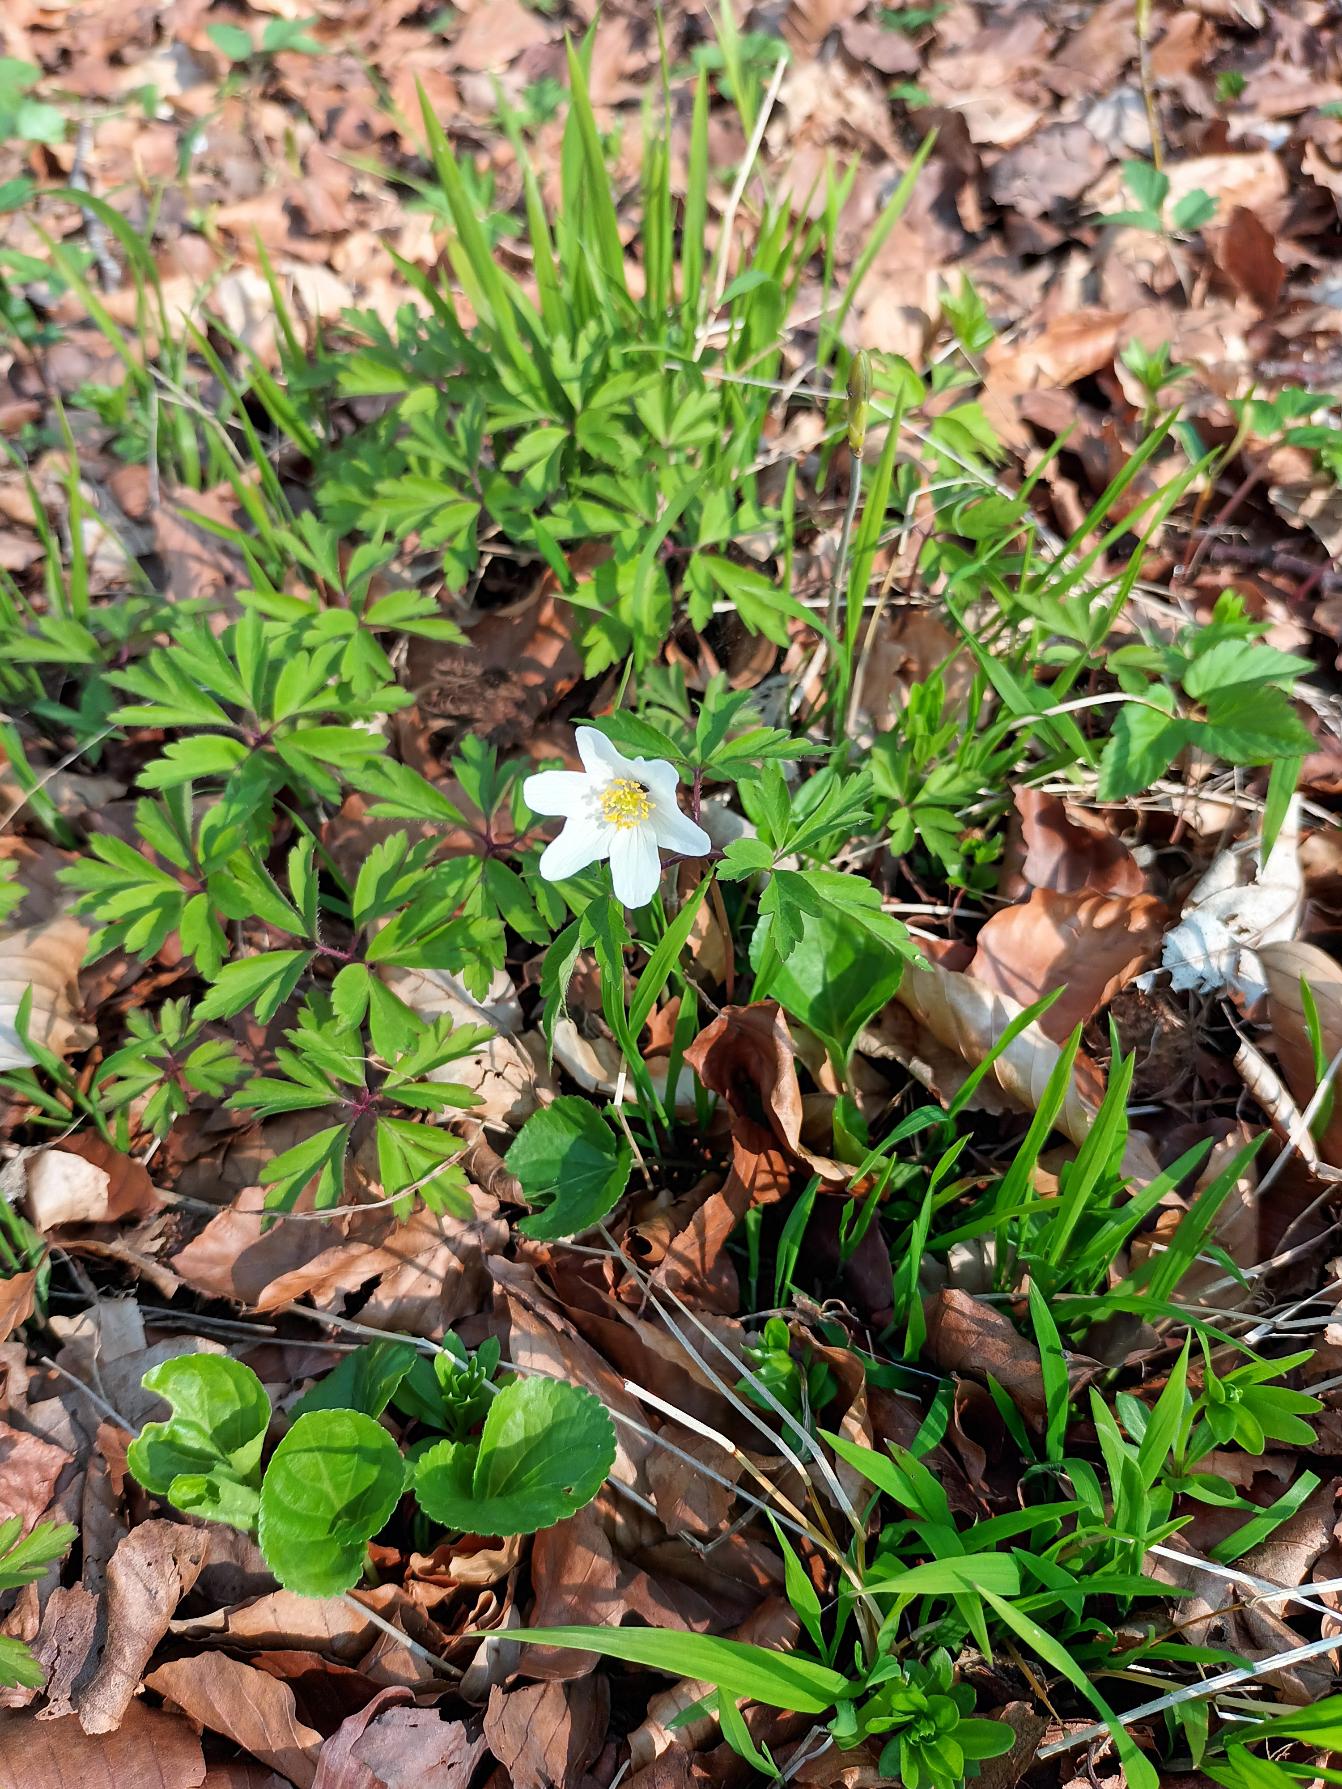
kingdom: Plantae
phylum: Tracheophyta
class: Magnoliopsida
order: Ranunculales
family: Ranunculaceae
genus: Anemone
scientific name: Anemone nemorosa
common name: Hvid anemone
